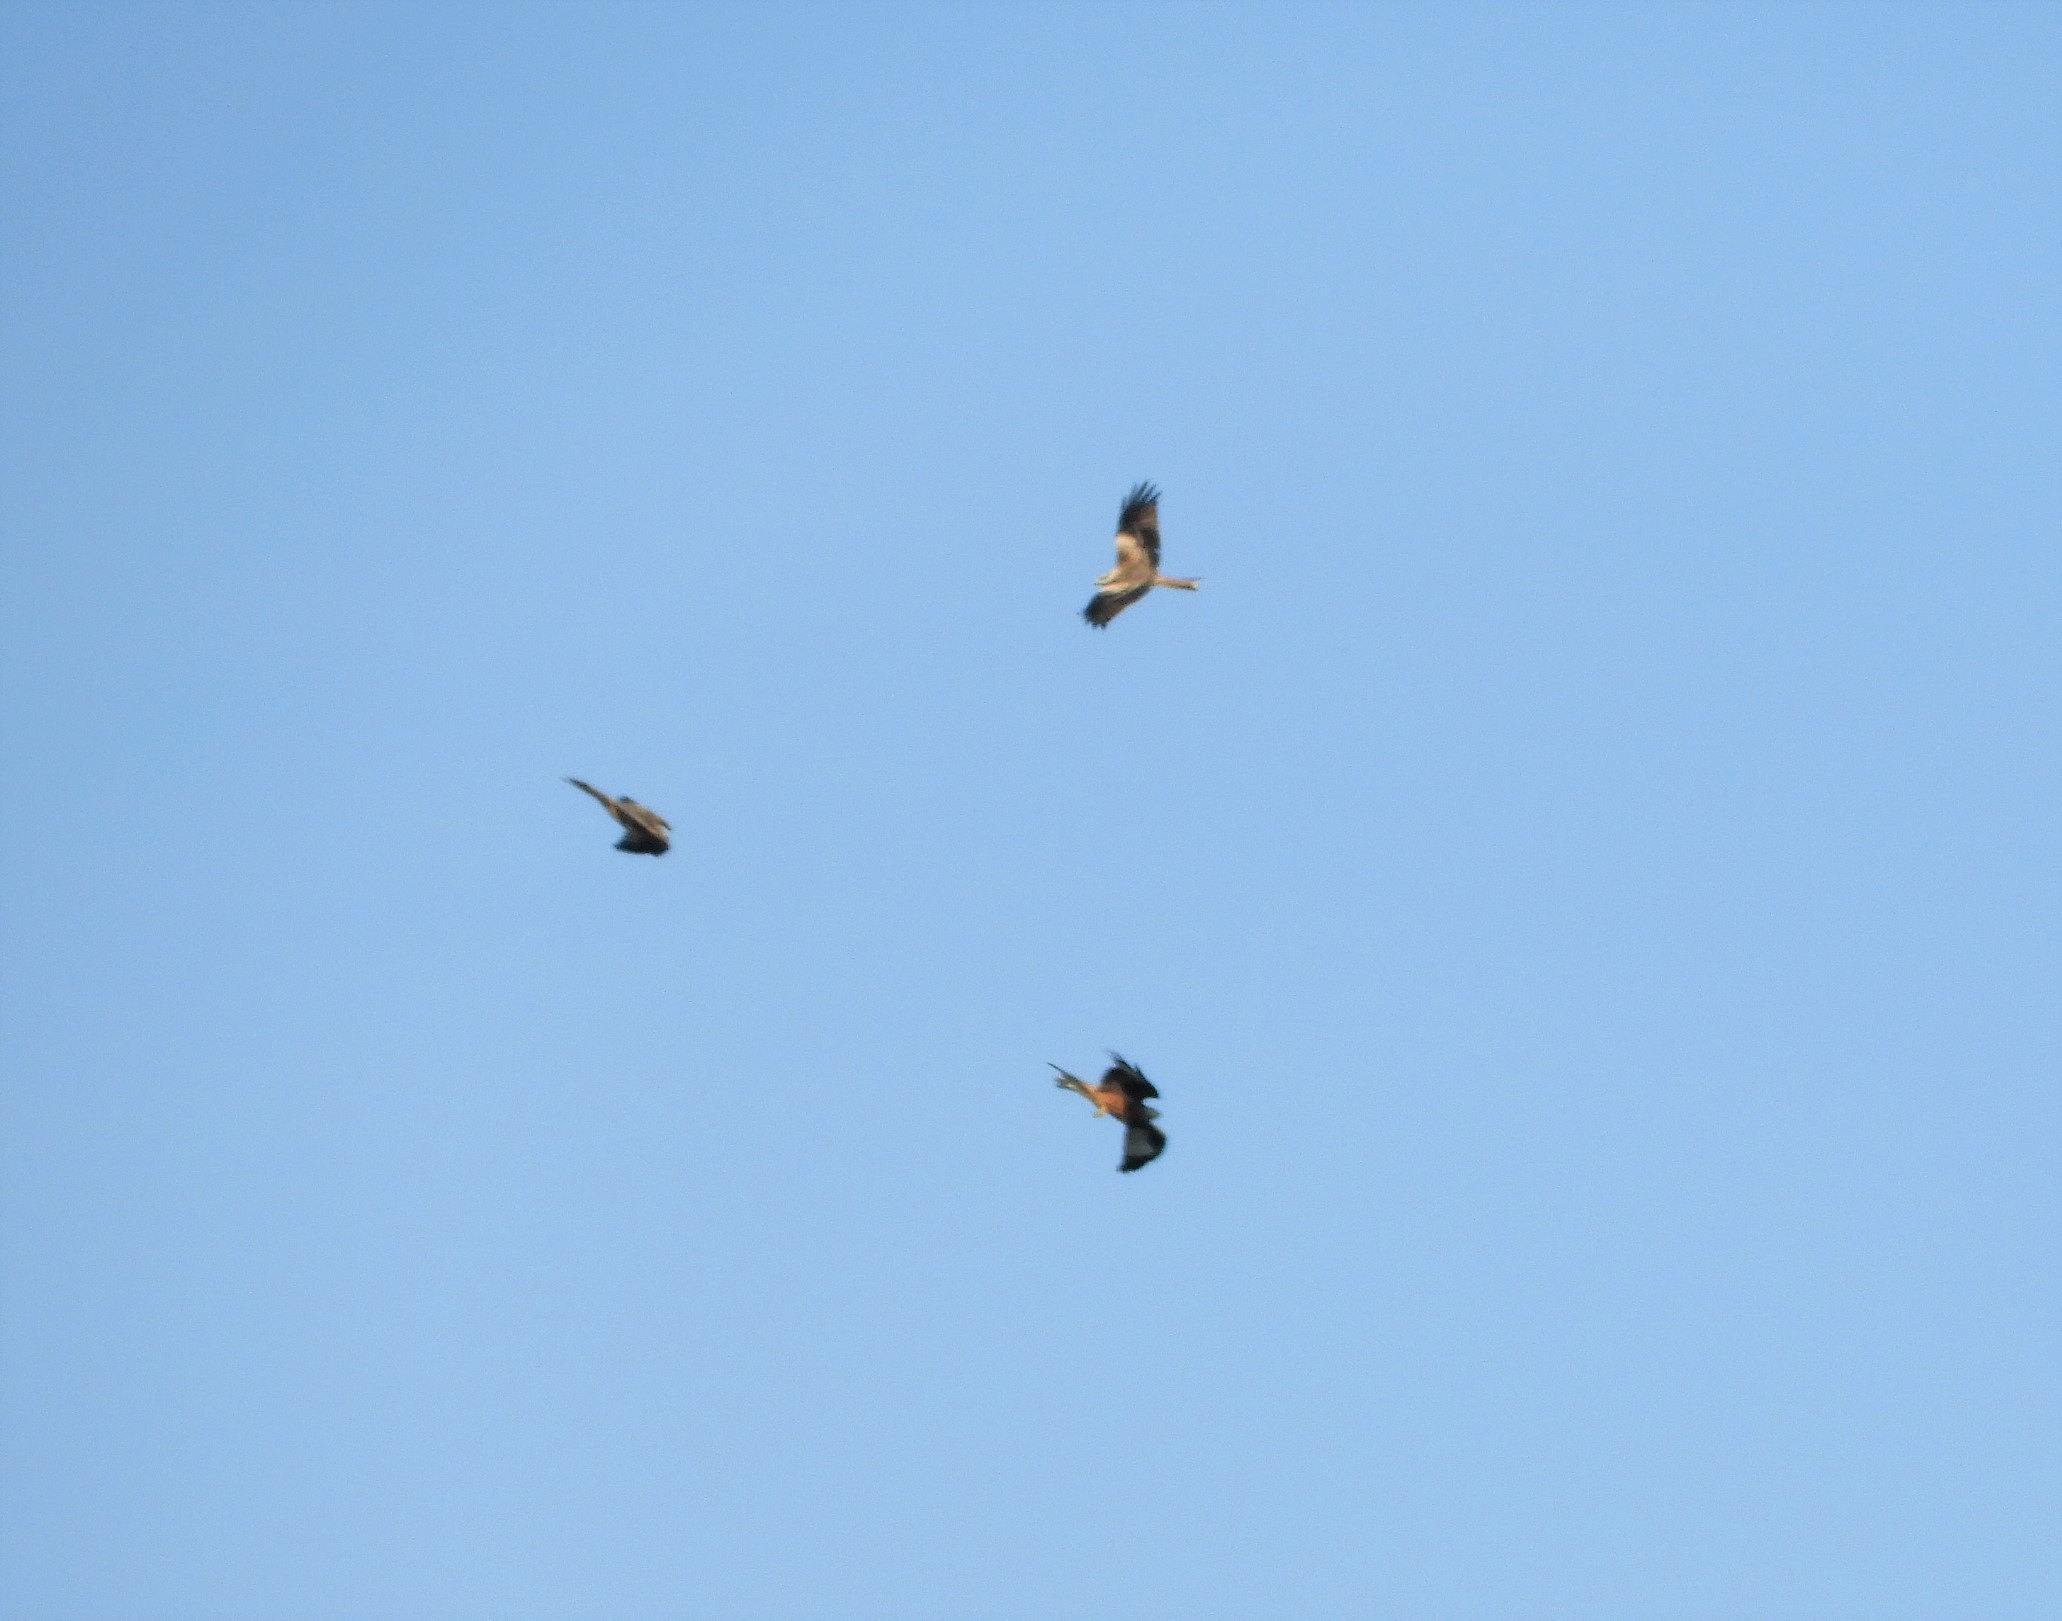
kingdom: Animalia
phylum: Chordata
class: Aves
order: Accipitriformes
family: Accipitridae
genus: Milvus
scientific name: Milvus milvus
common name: Rød glente
